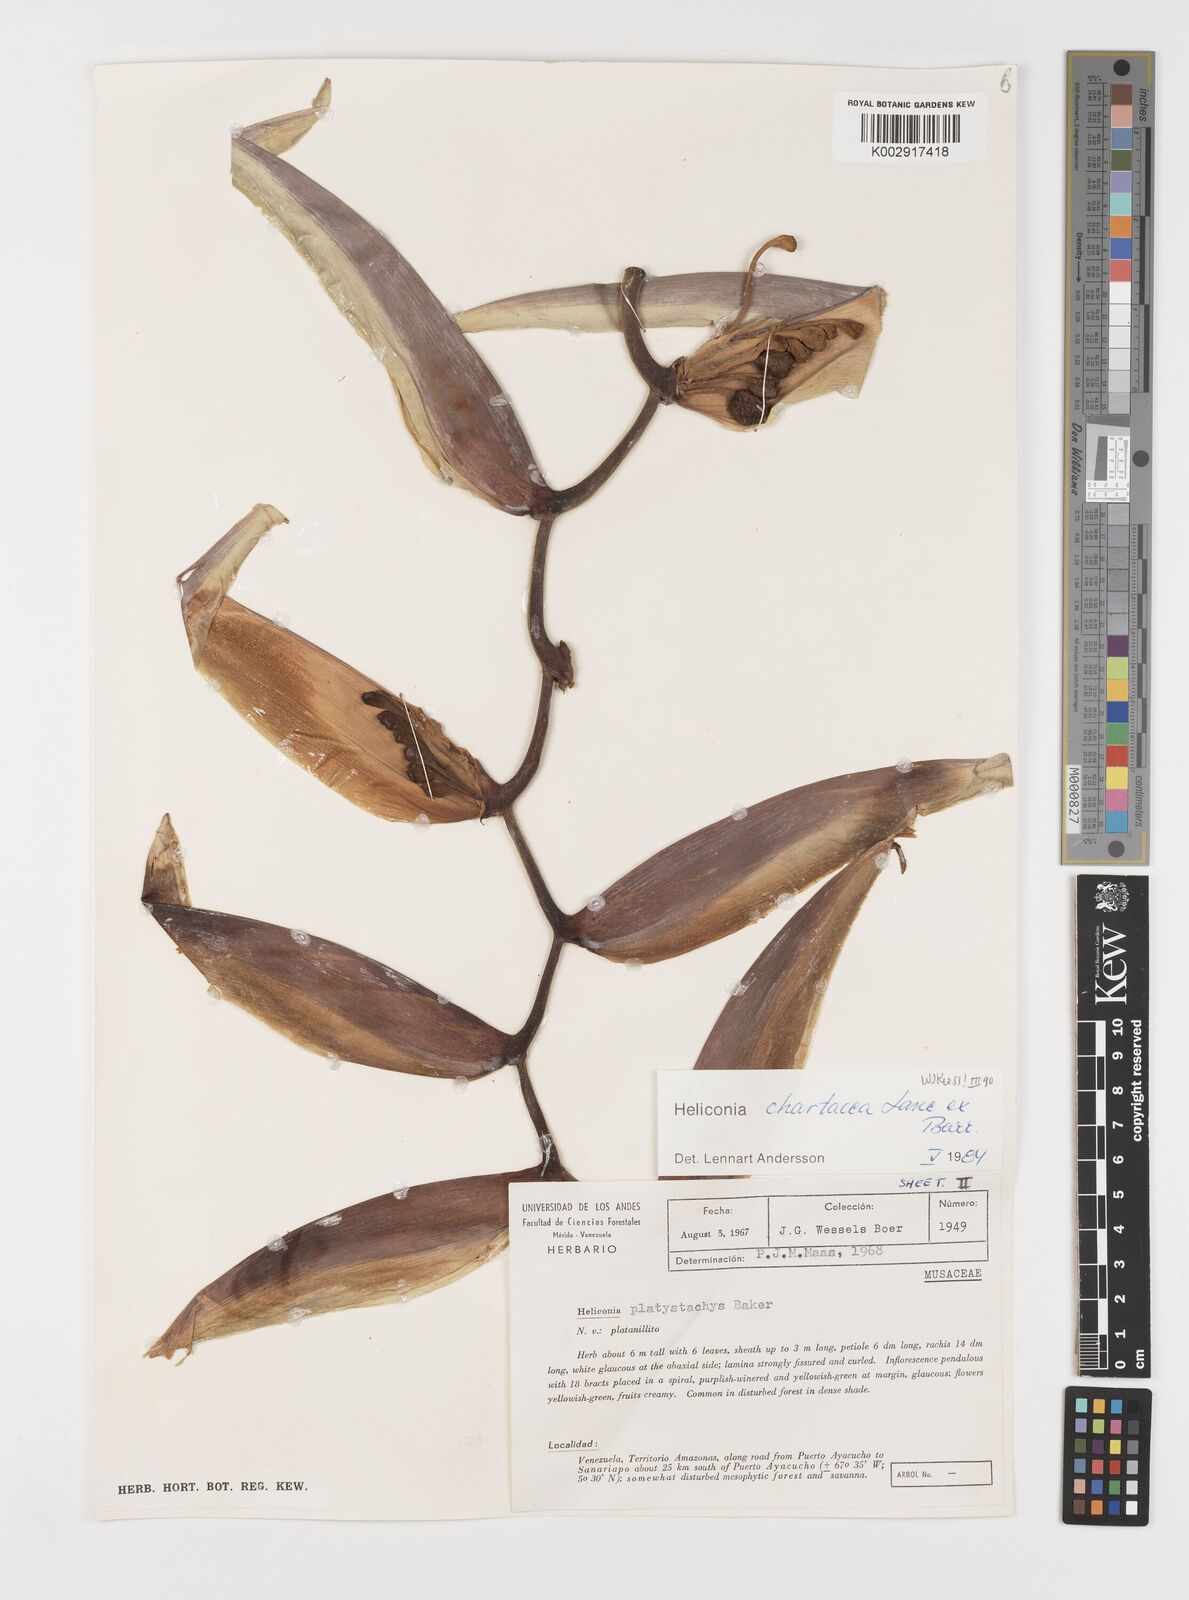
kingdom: Plantae
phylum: Tracheophyta
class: Liliopsida
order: Zingiberales
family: Heliconiaceae
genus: Heliconia
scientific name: Heliconia chartacea
